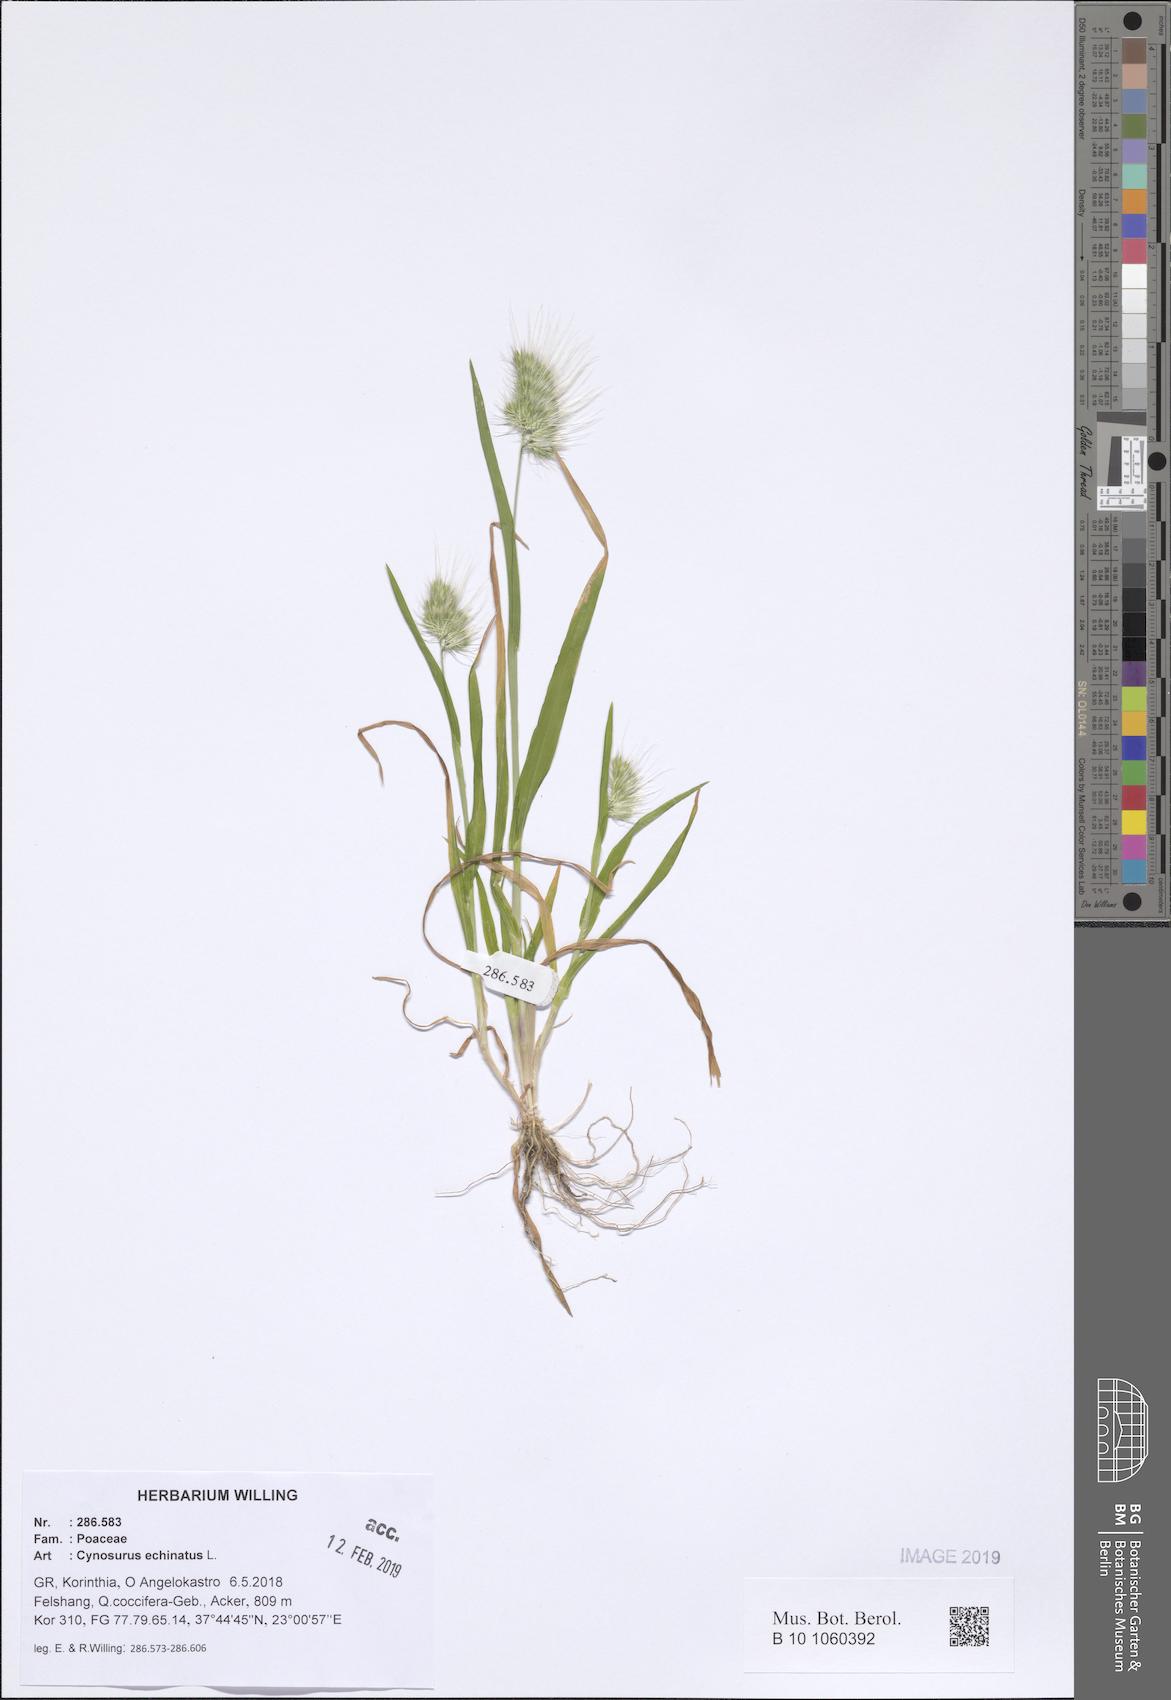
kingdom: Plantae
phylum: Tracheophyta
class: Liliopsida
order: Poales
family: Poaceae
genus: Cynosurus
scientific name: Cynosurus echinatus
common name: Rough dog's-tail
